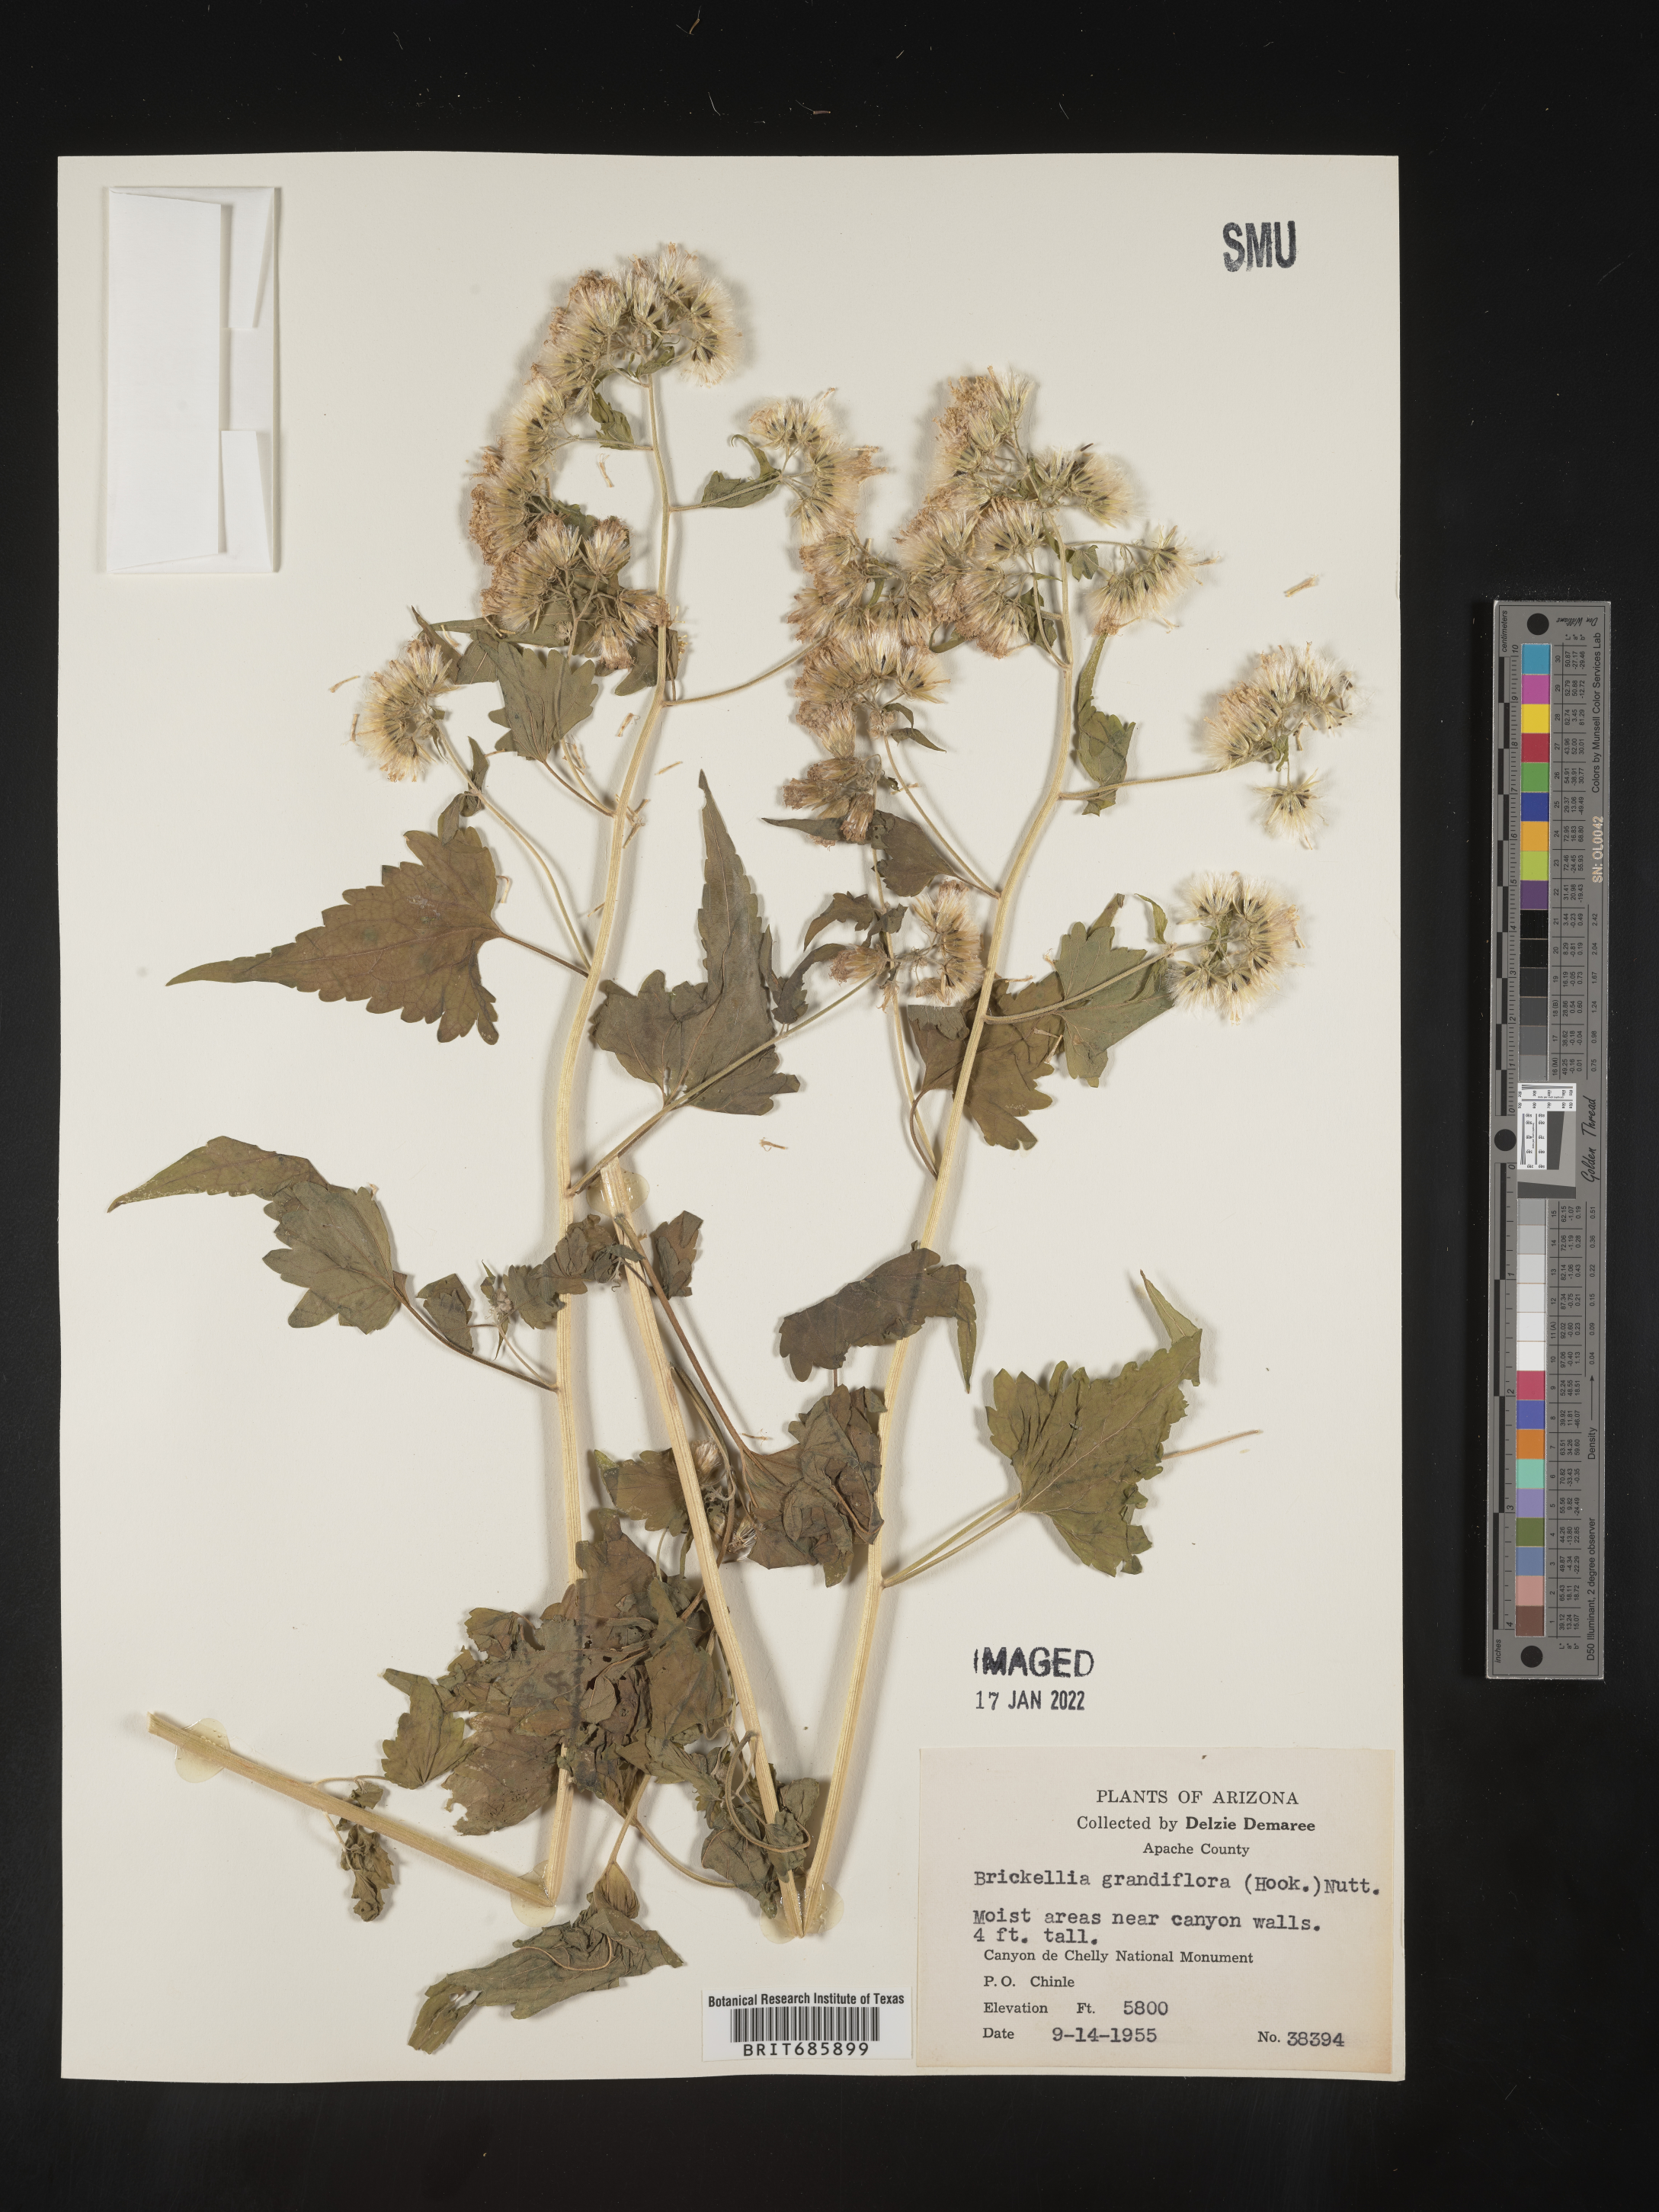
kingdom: Plantae
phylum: Tracheophyta
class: Magnoliopsida
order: Asterales
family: Asteraceae
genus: Brickellia
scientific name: Brickellia grandiflora
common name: Large-flowered brickellia
